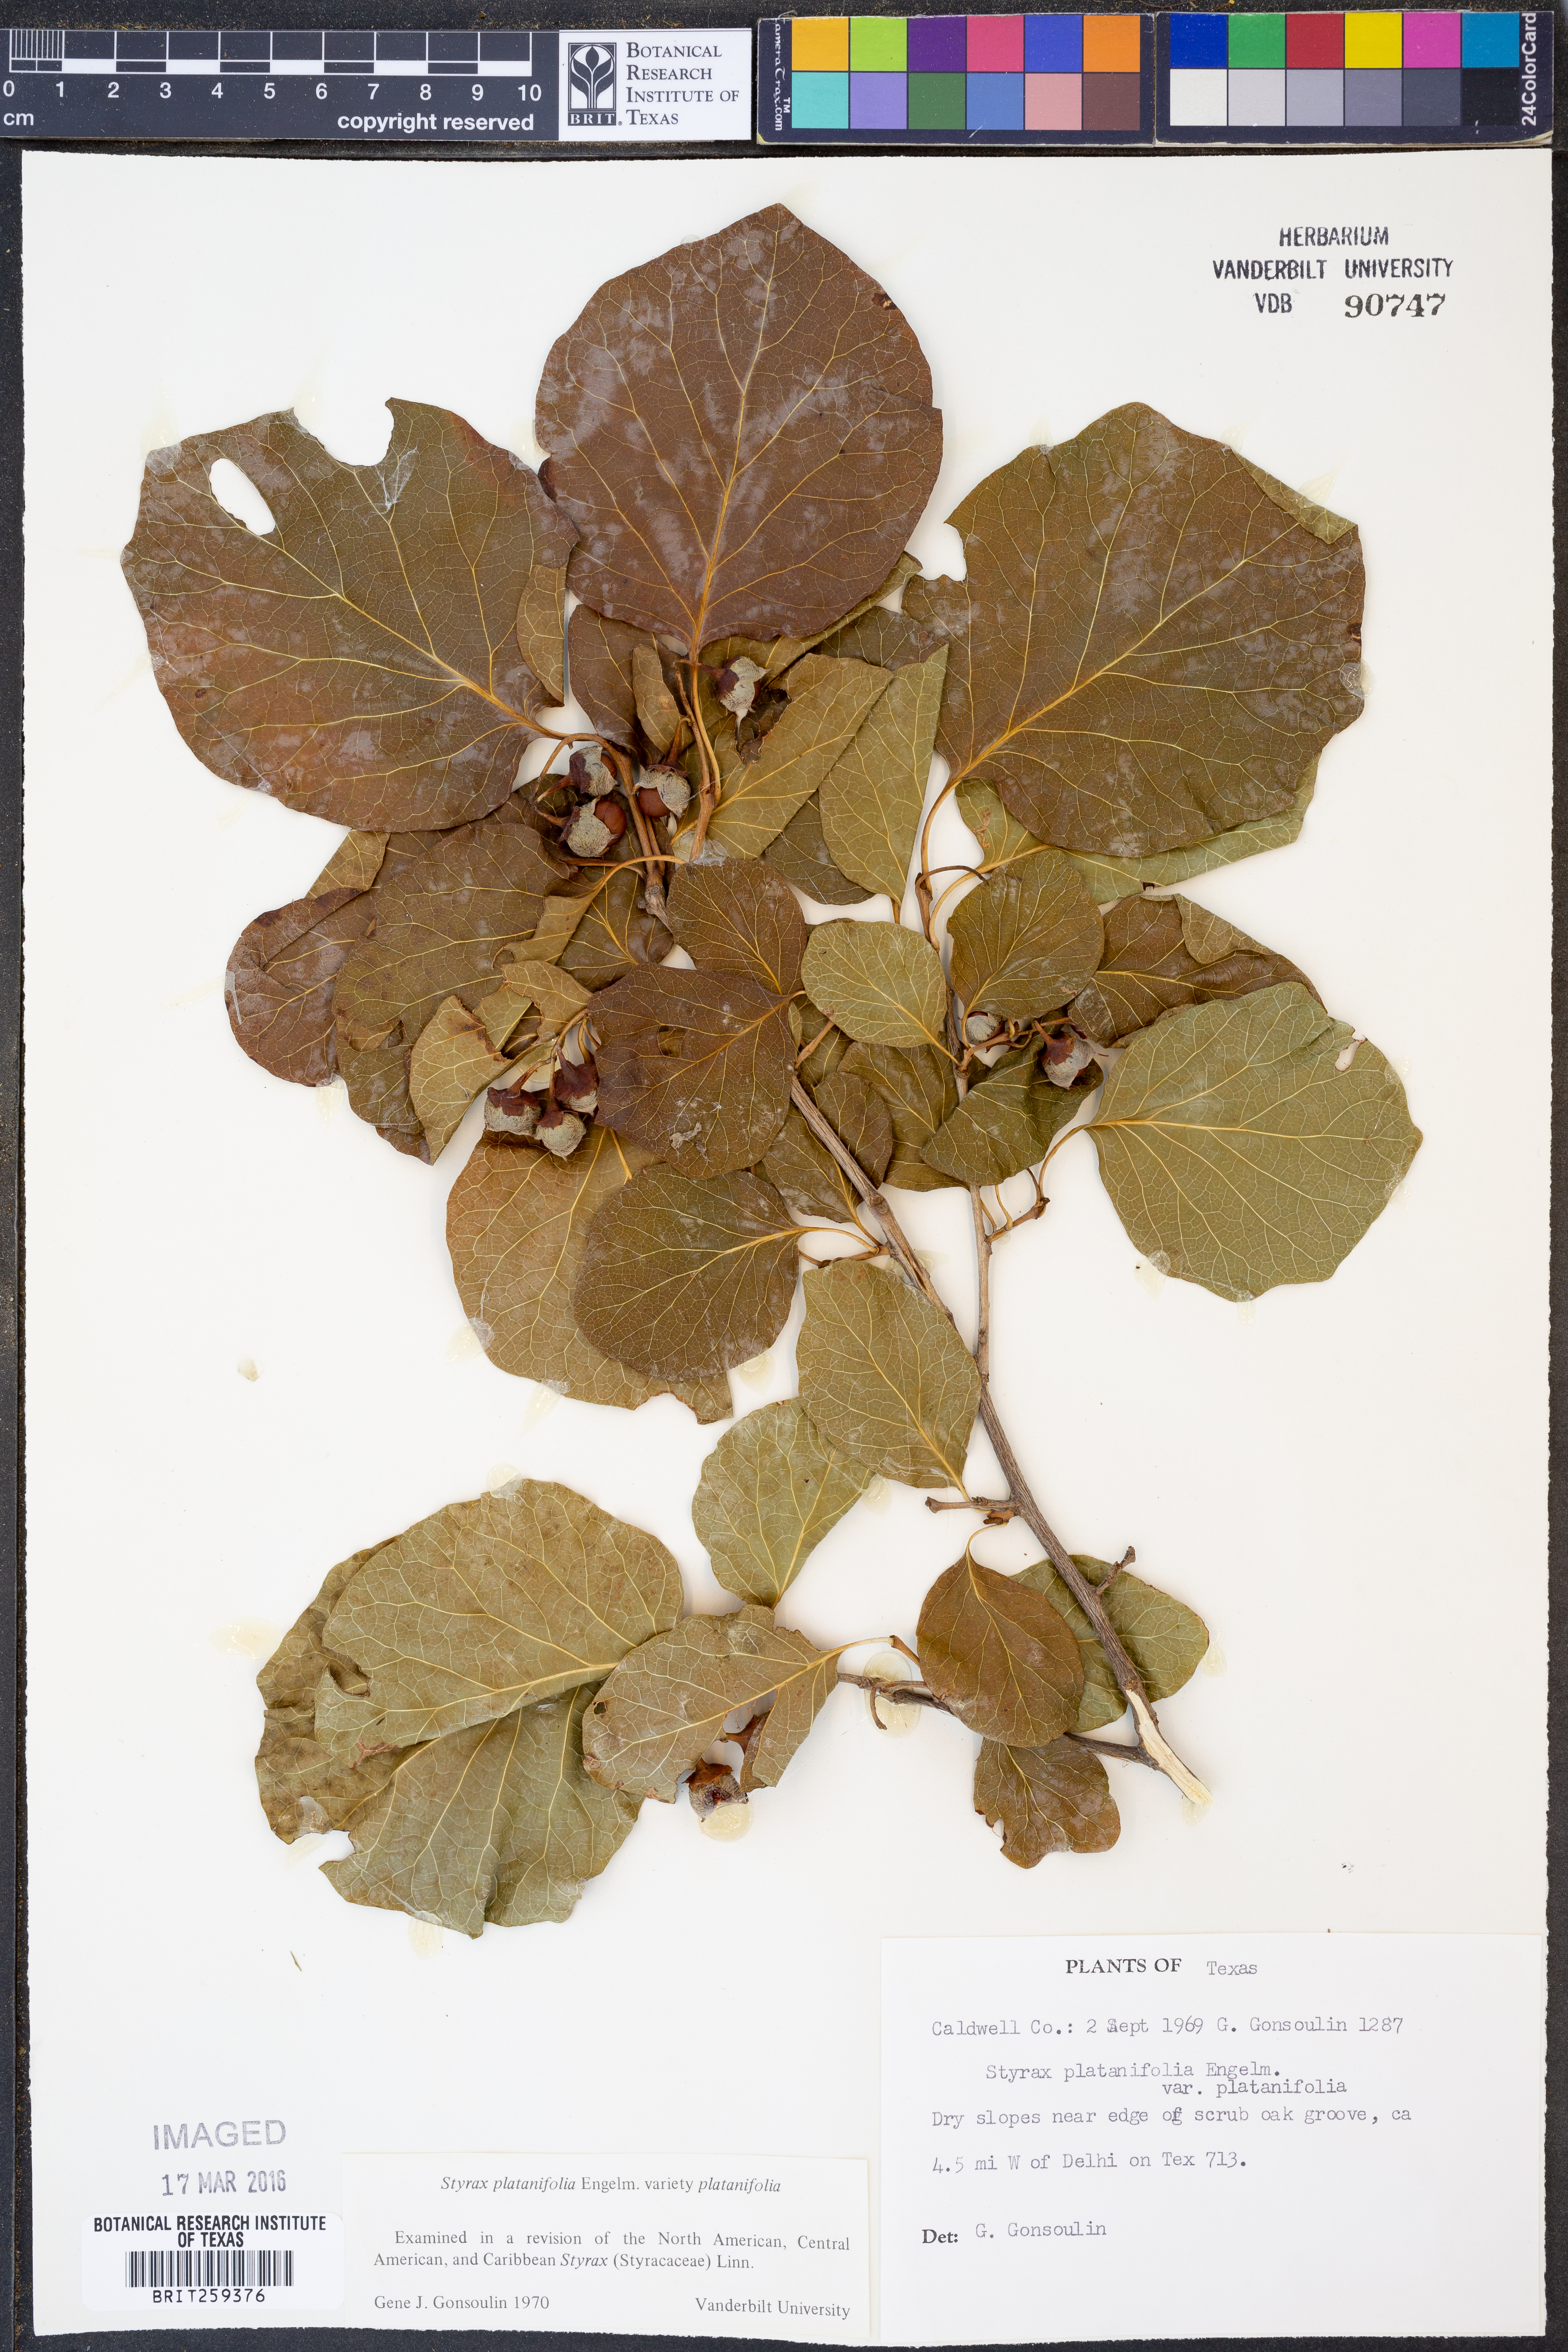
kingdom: Plantae
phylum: Tracheophyta
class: Magnoliopsida
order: Ericales
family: Styracaceae
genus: Styrax
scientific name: Styrax platanifolius
